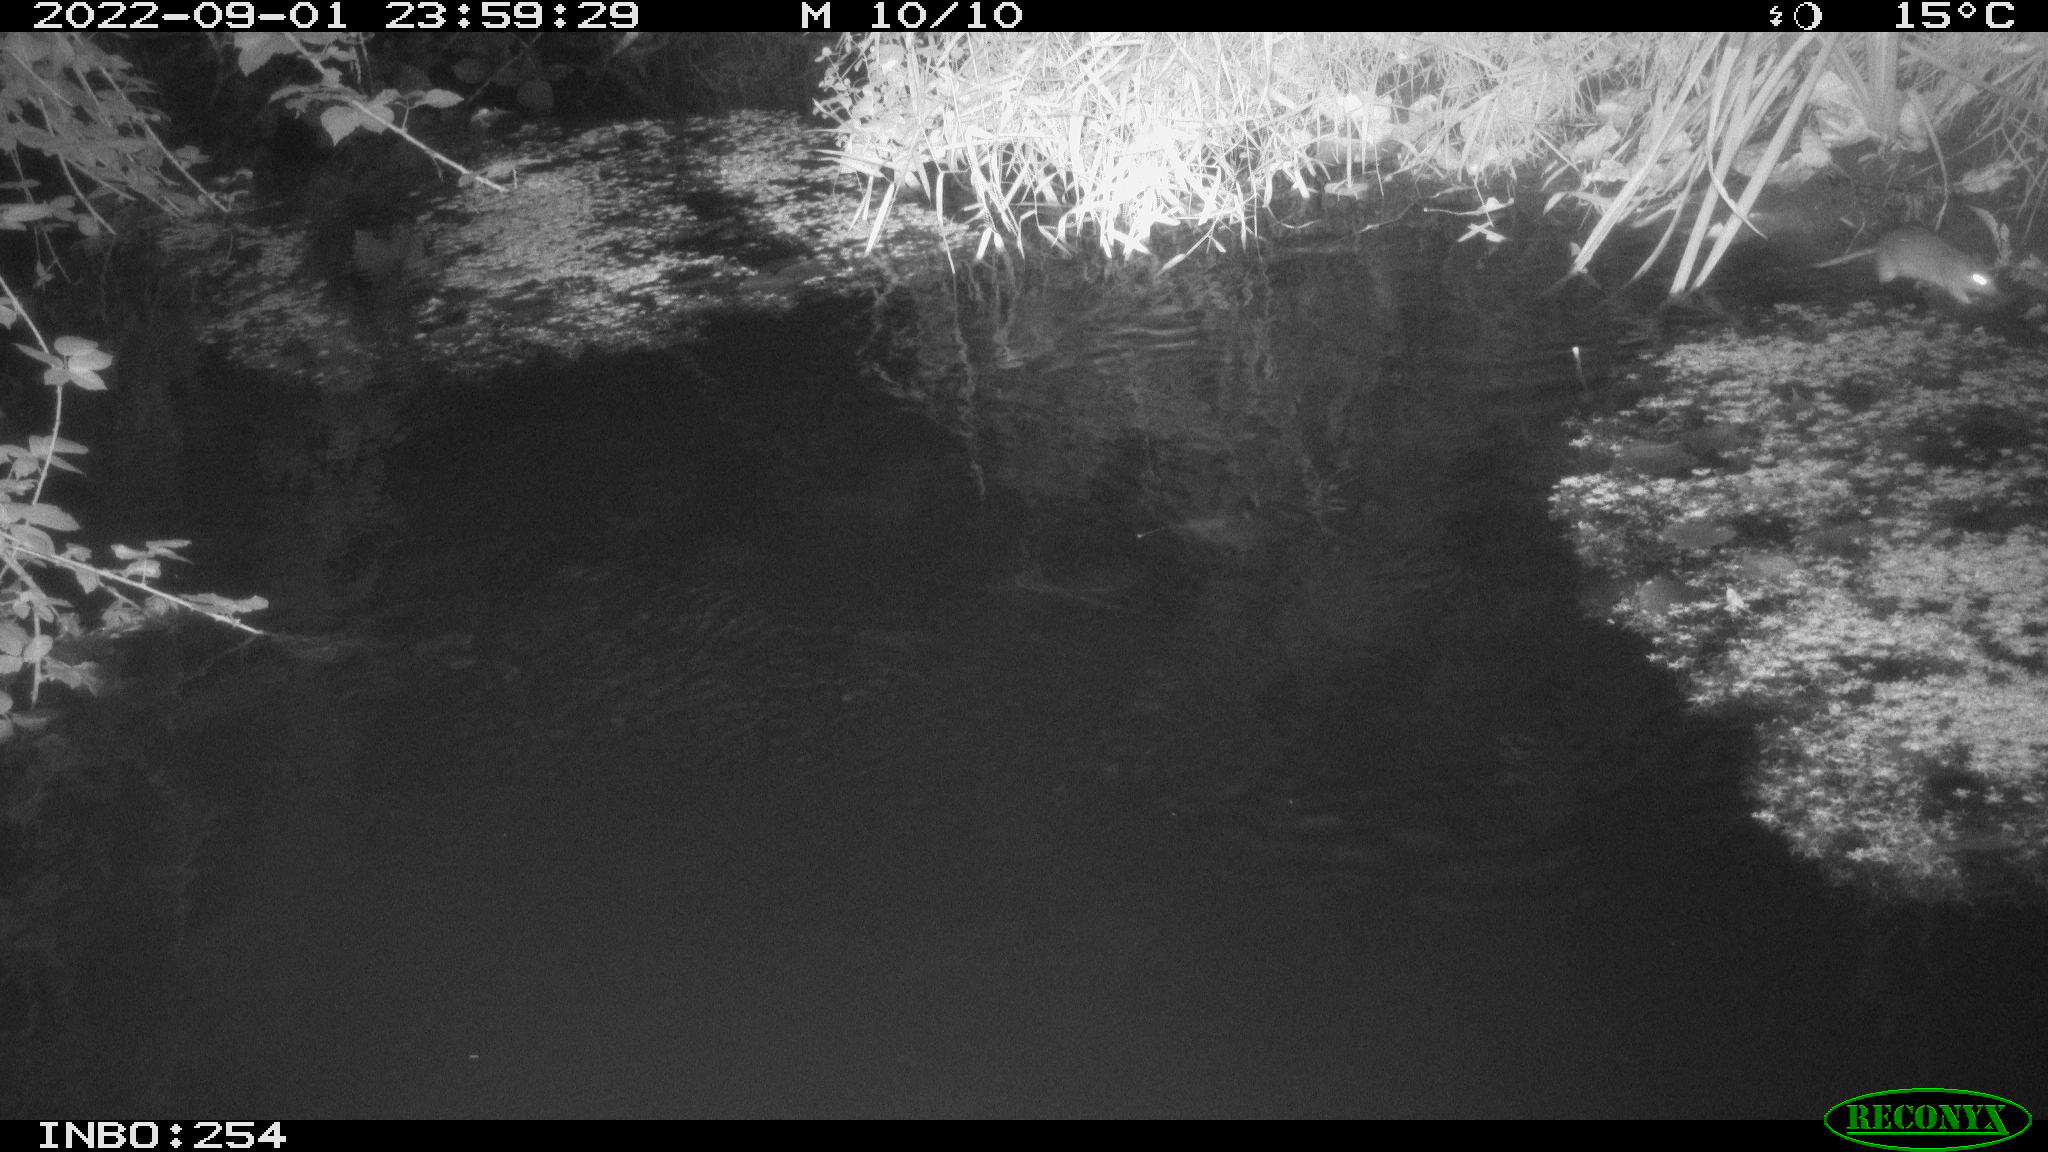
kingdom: Animalia
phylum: Chordata
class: Mammalia
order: Rodentia
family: Muridae
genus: Rattus
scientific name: Rattus norvegicus
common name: Brown rat
